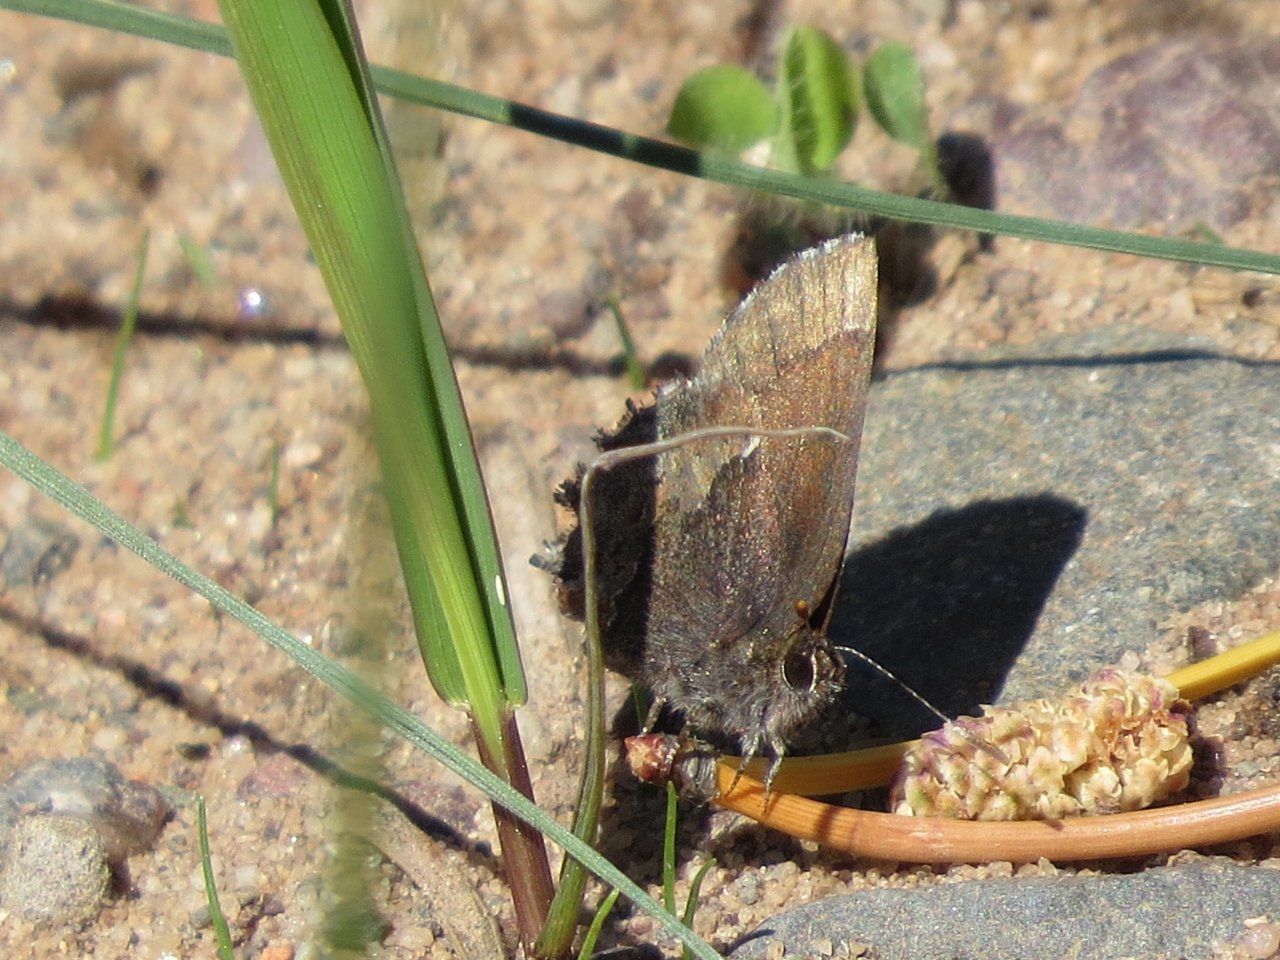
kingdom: Animalia
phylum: Arthropoda
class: Insecta
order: Lepidoptera
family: Lycaenidae
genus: Incisalia
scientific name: Incisalia irioides
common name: Brown Elfin
